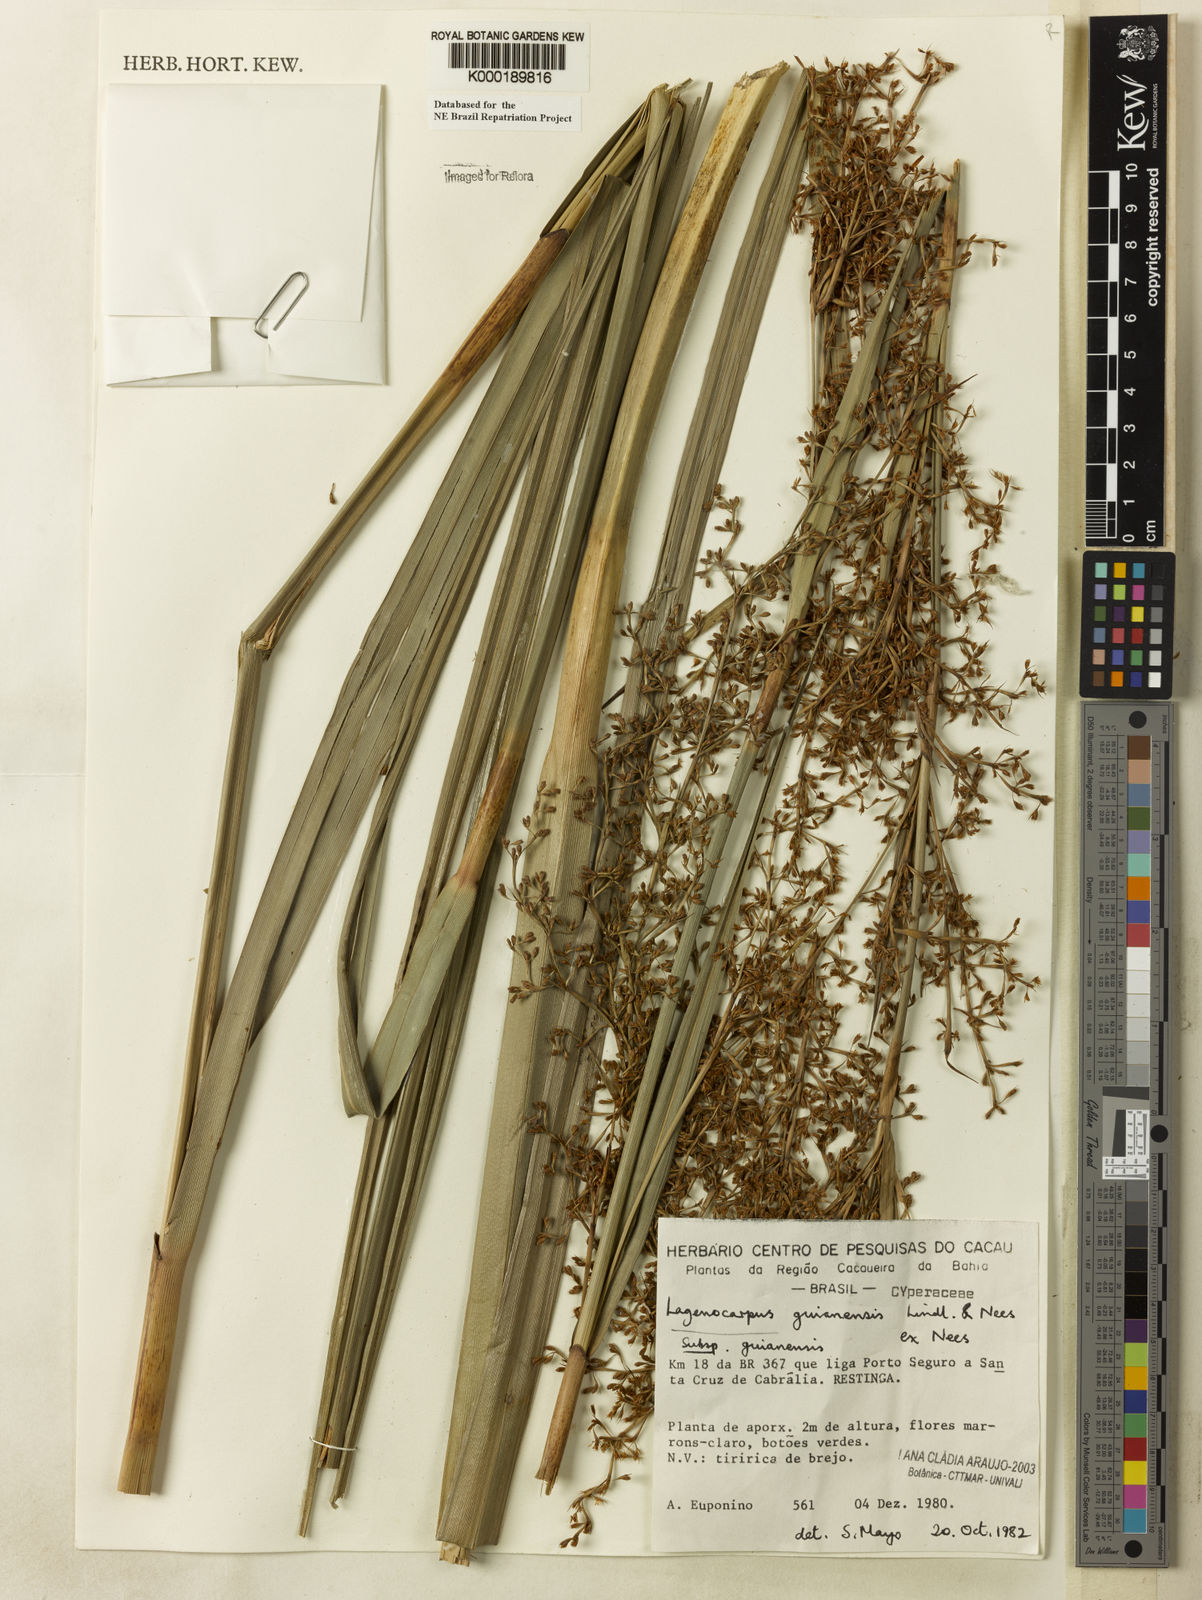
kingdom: Plantae
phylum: Tracheophyta
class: Liliopsida
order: Poales
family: Cyperaceae
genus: Lagenocarpus
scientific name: Lagenocarpus guianensis
